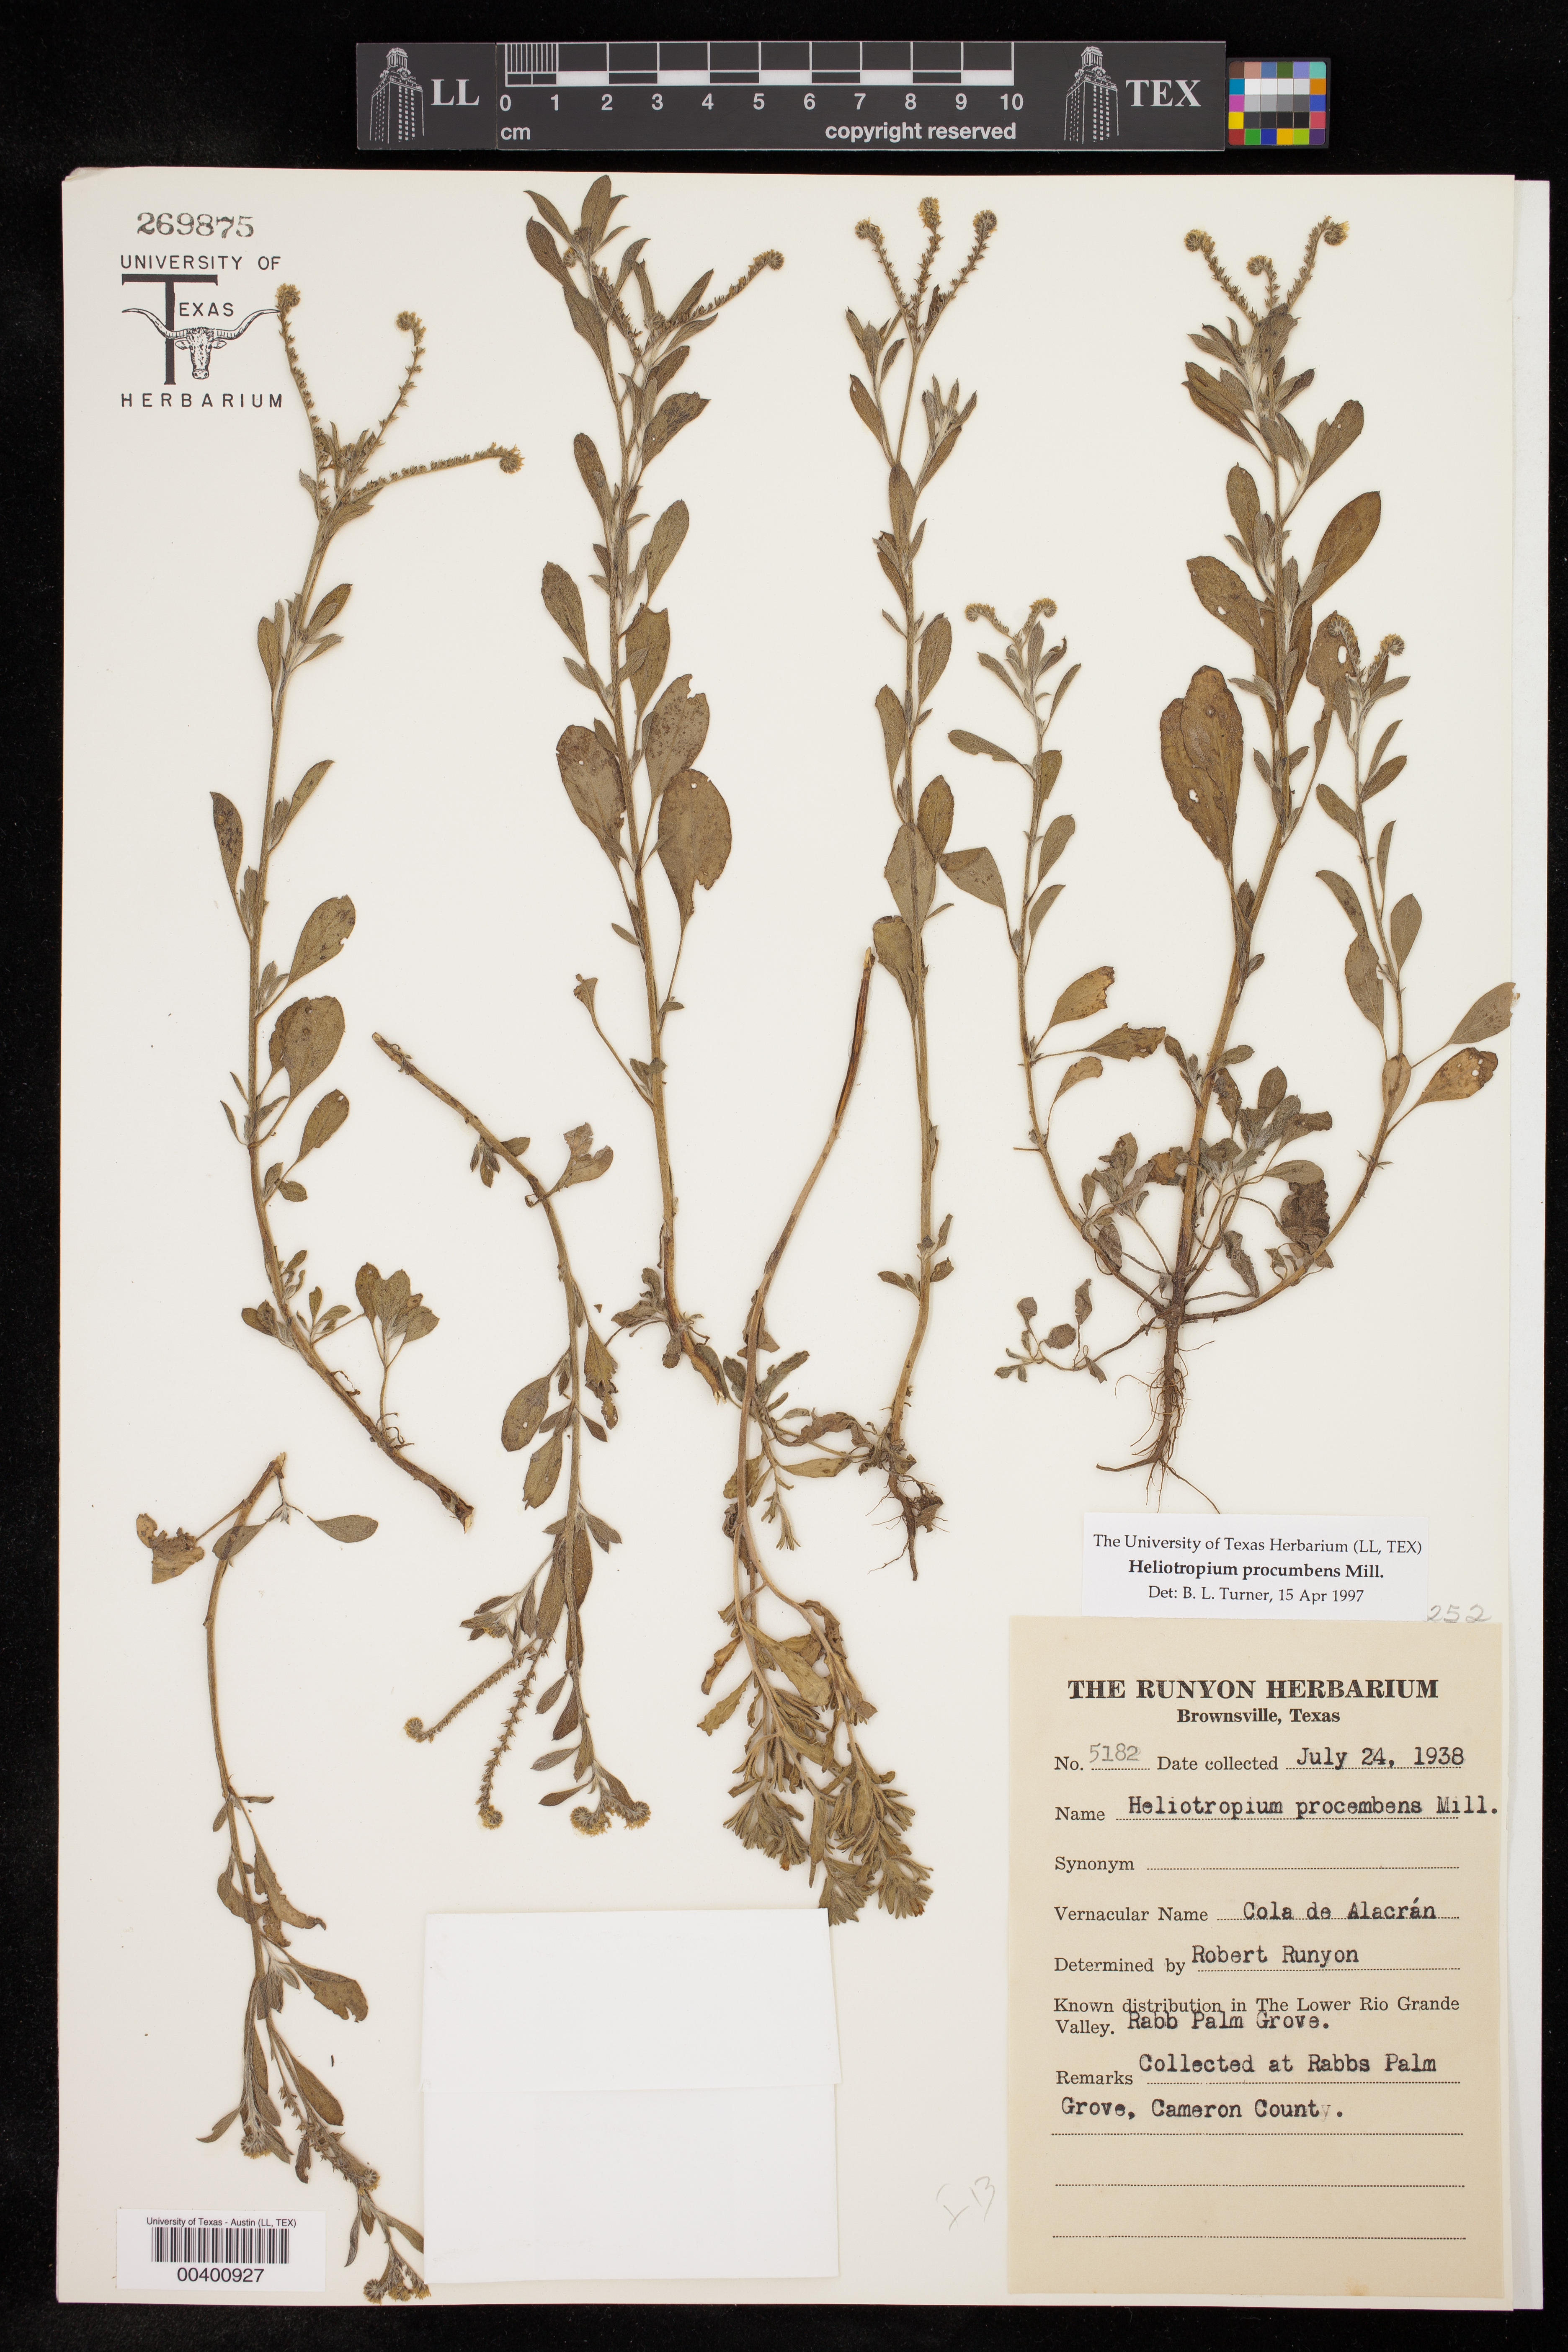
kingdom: Plantae
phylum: Tracheophyta
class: Magnoliopsida
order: Boraginales
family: Heliotropiaceae
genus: Euploca
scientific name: Euploca procumbens
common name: Fourspike heliotrope
